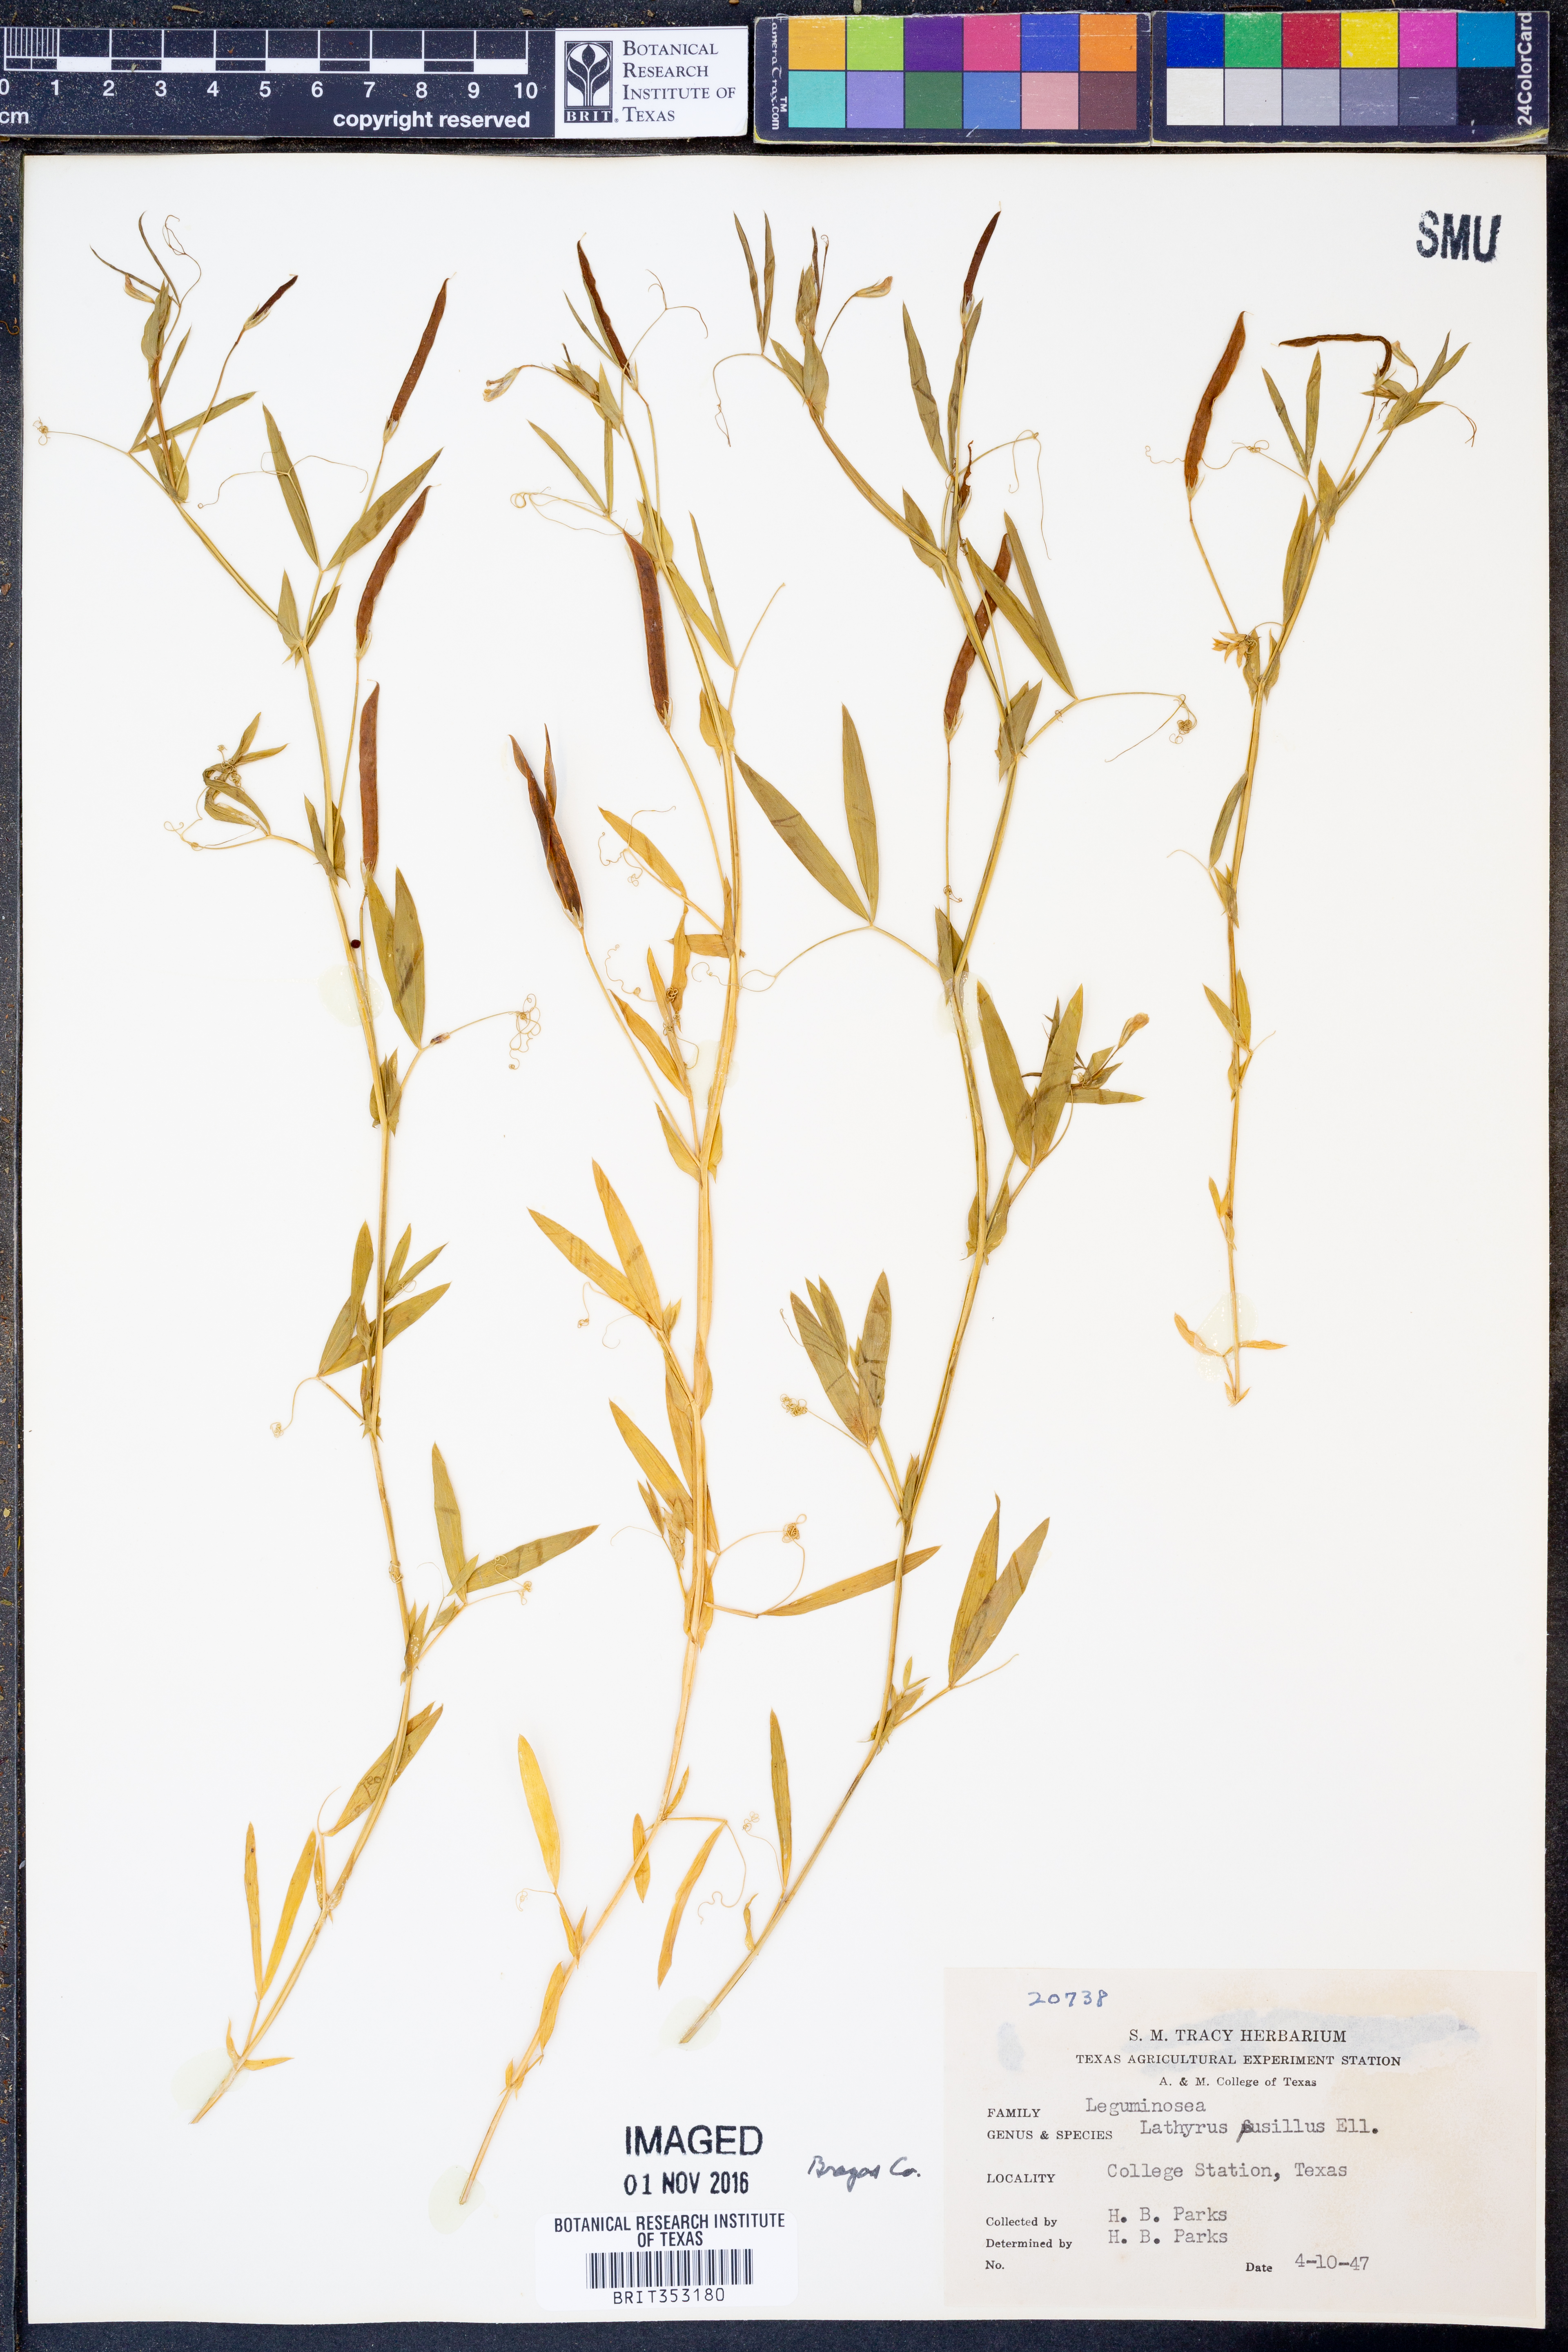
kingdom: Plantae
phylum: Tracheophyta
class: Magnoliopsida
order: Fabales
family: Fabaceae
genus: Lathyrus
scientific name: Lathyrus pusillus
